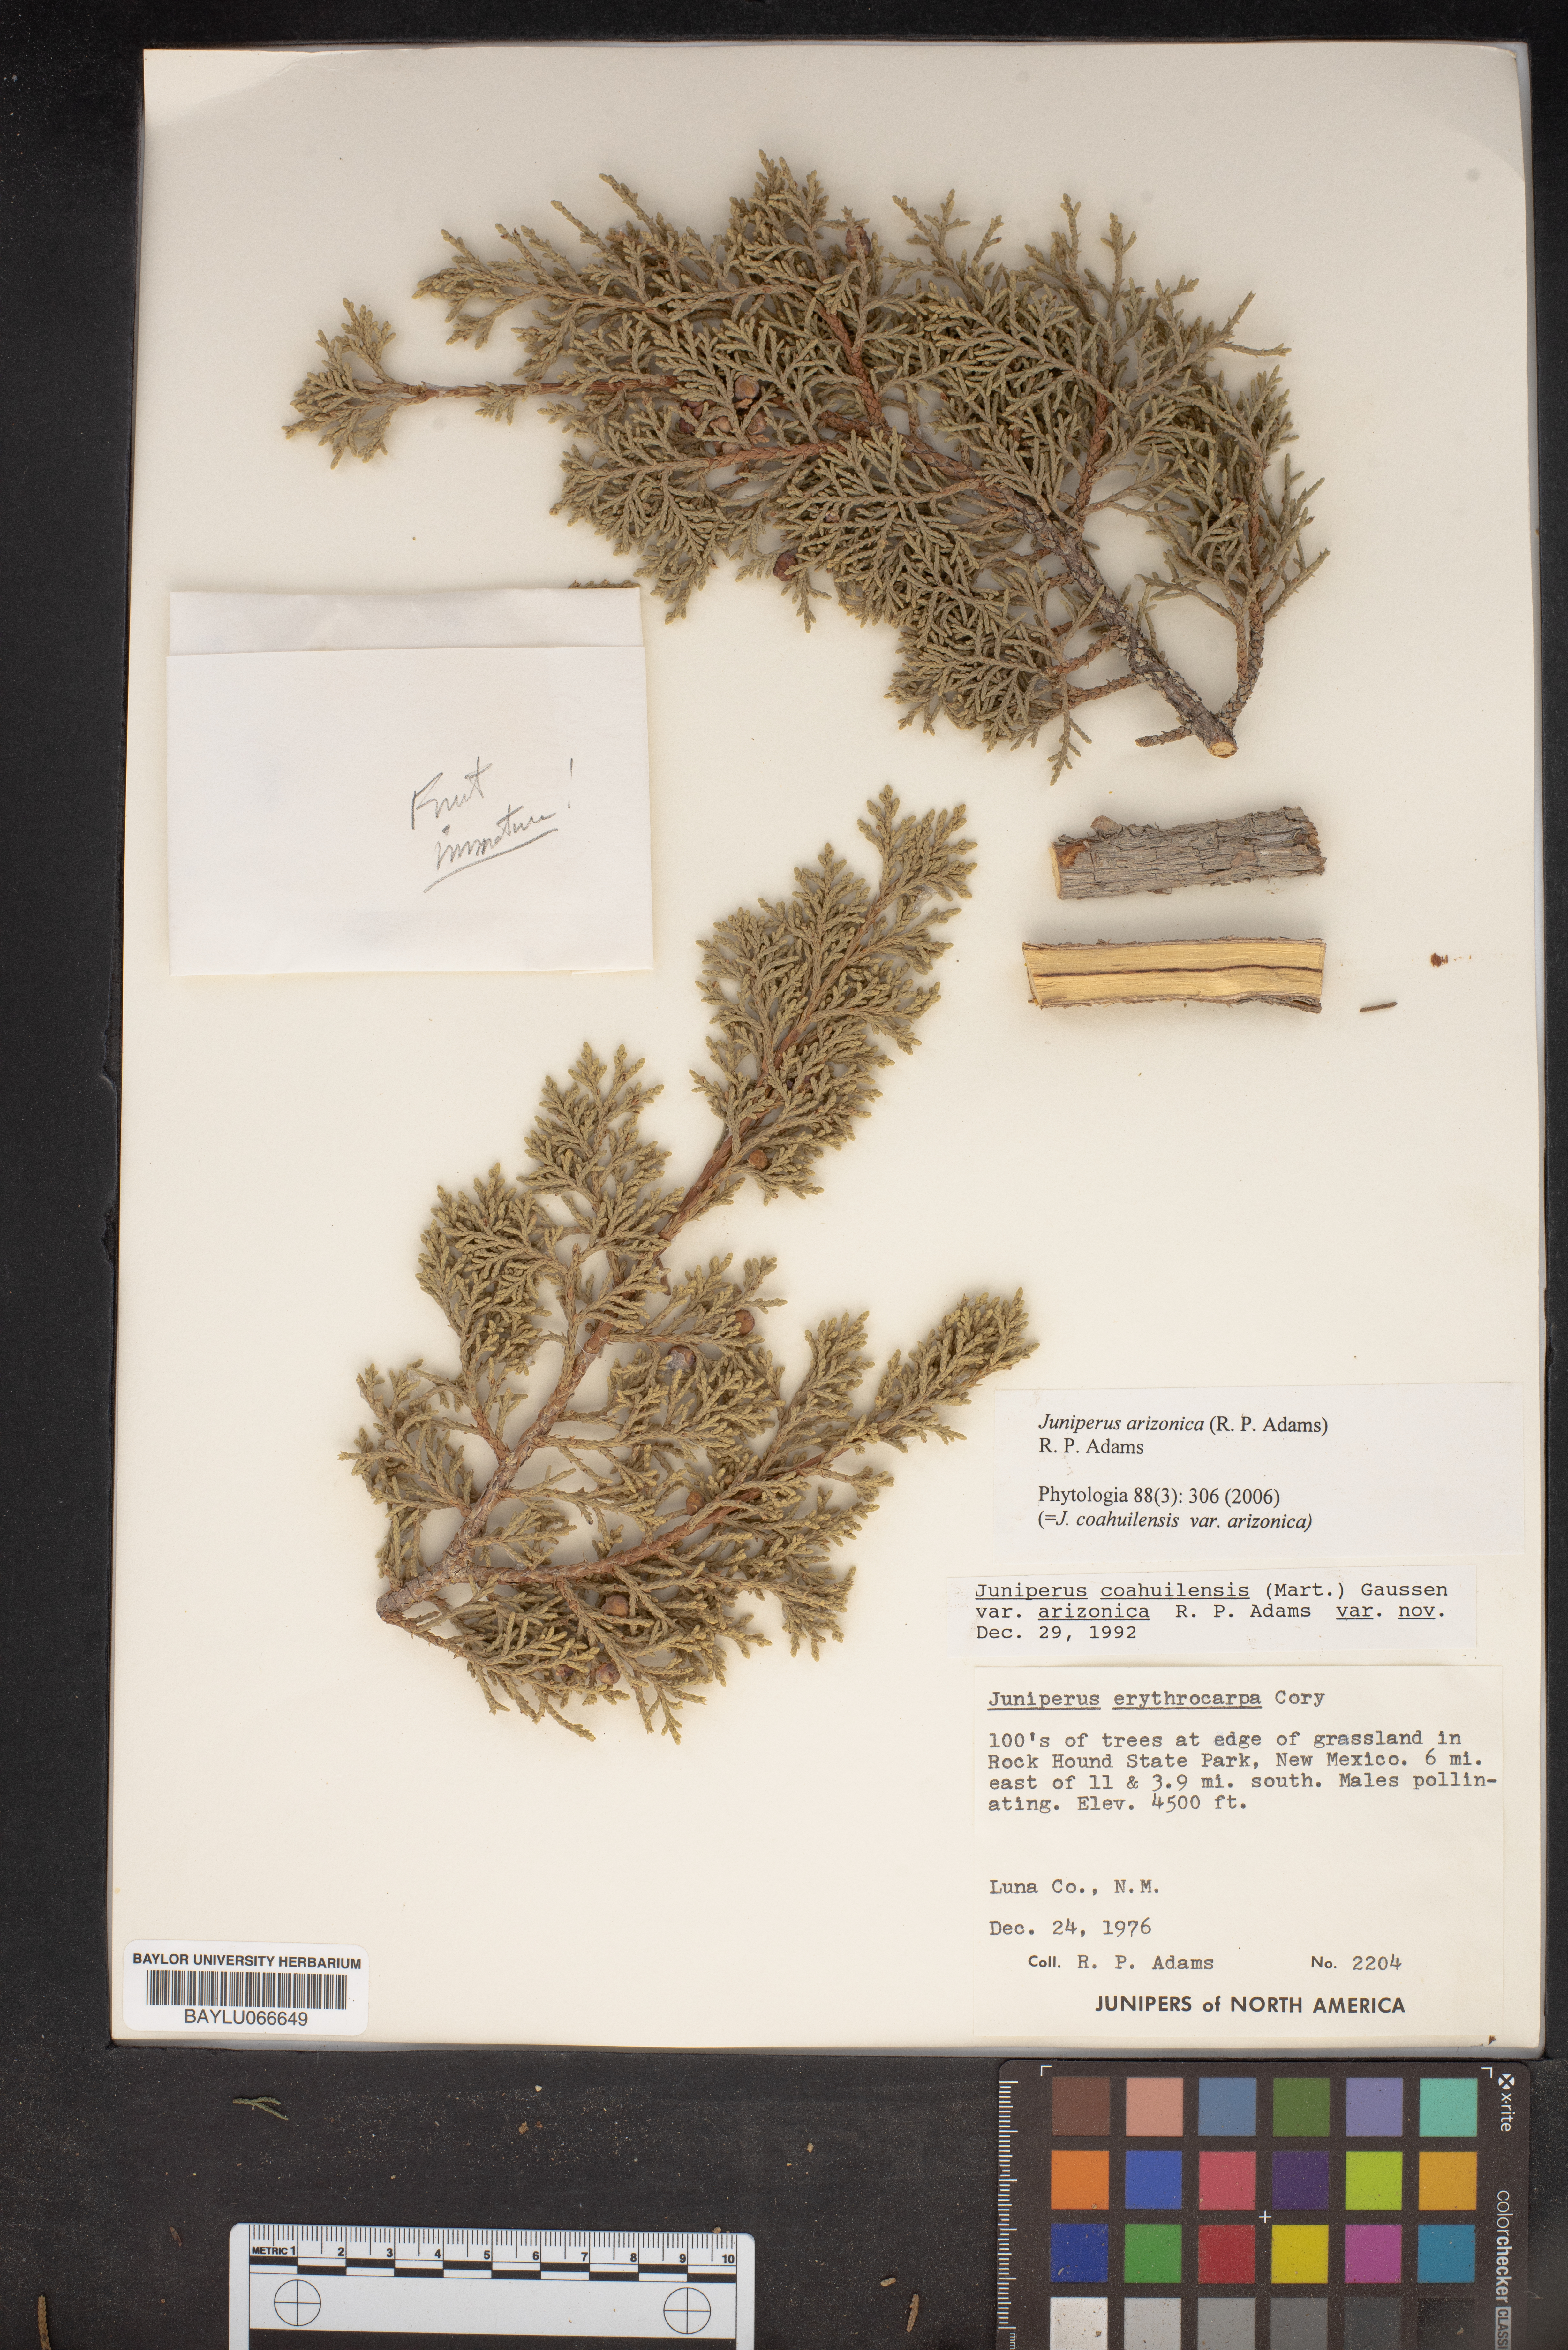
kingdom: Plantae
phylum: Tracheophyta
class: Pinopsida
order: Pinales
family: Cupressaceae
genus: Juniperus
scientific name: Juniperus pinchotii
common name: Pinchot juniper
